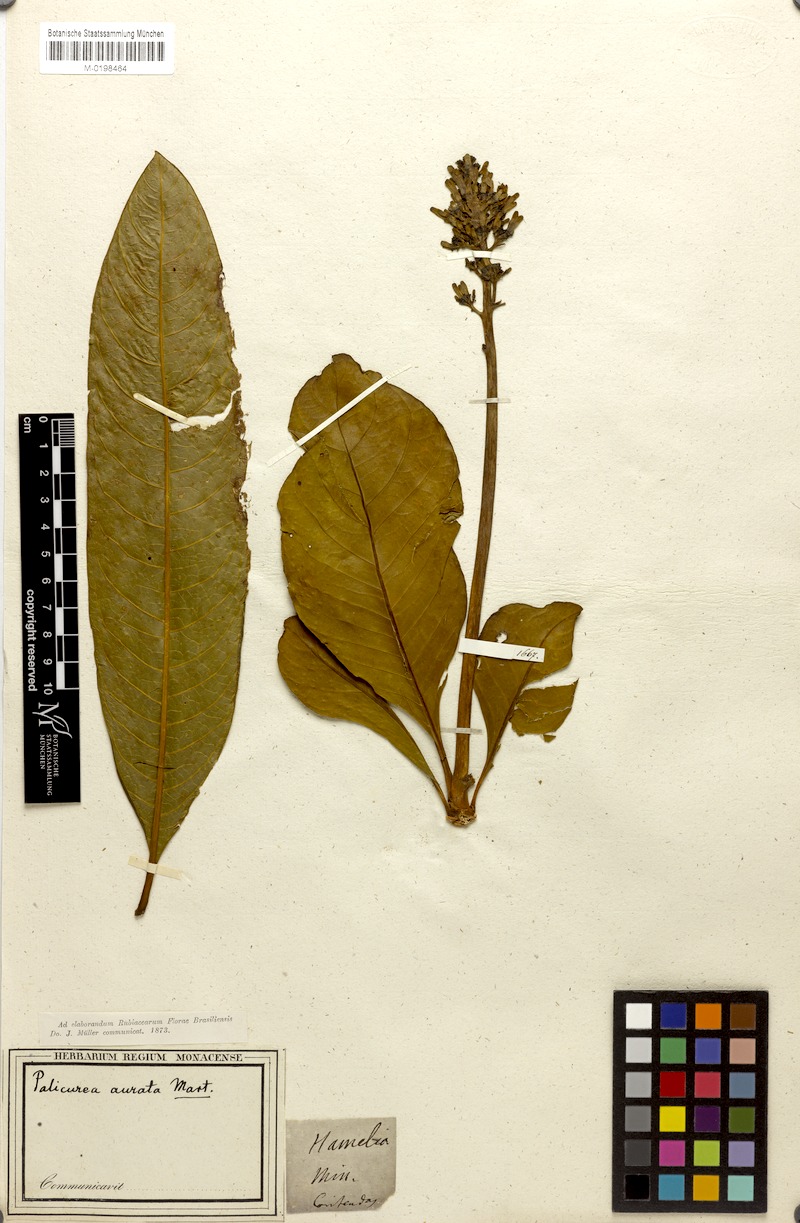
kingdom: Plantae
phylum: Tracheophyta
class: Magnoliopsida
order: Gentianales
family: Rubiaceae
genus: Palicourea
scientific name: Palicourea rigida
